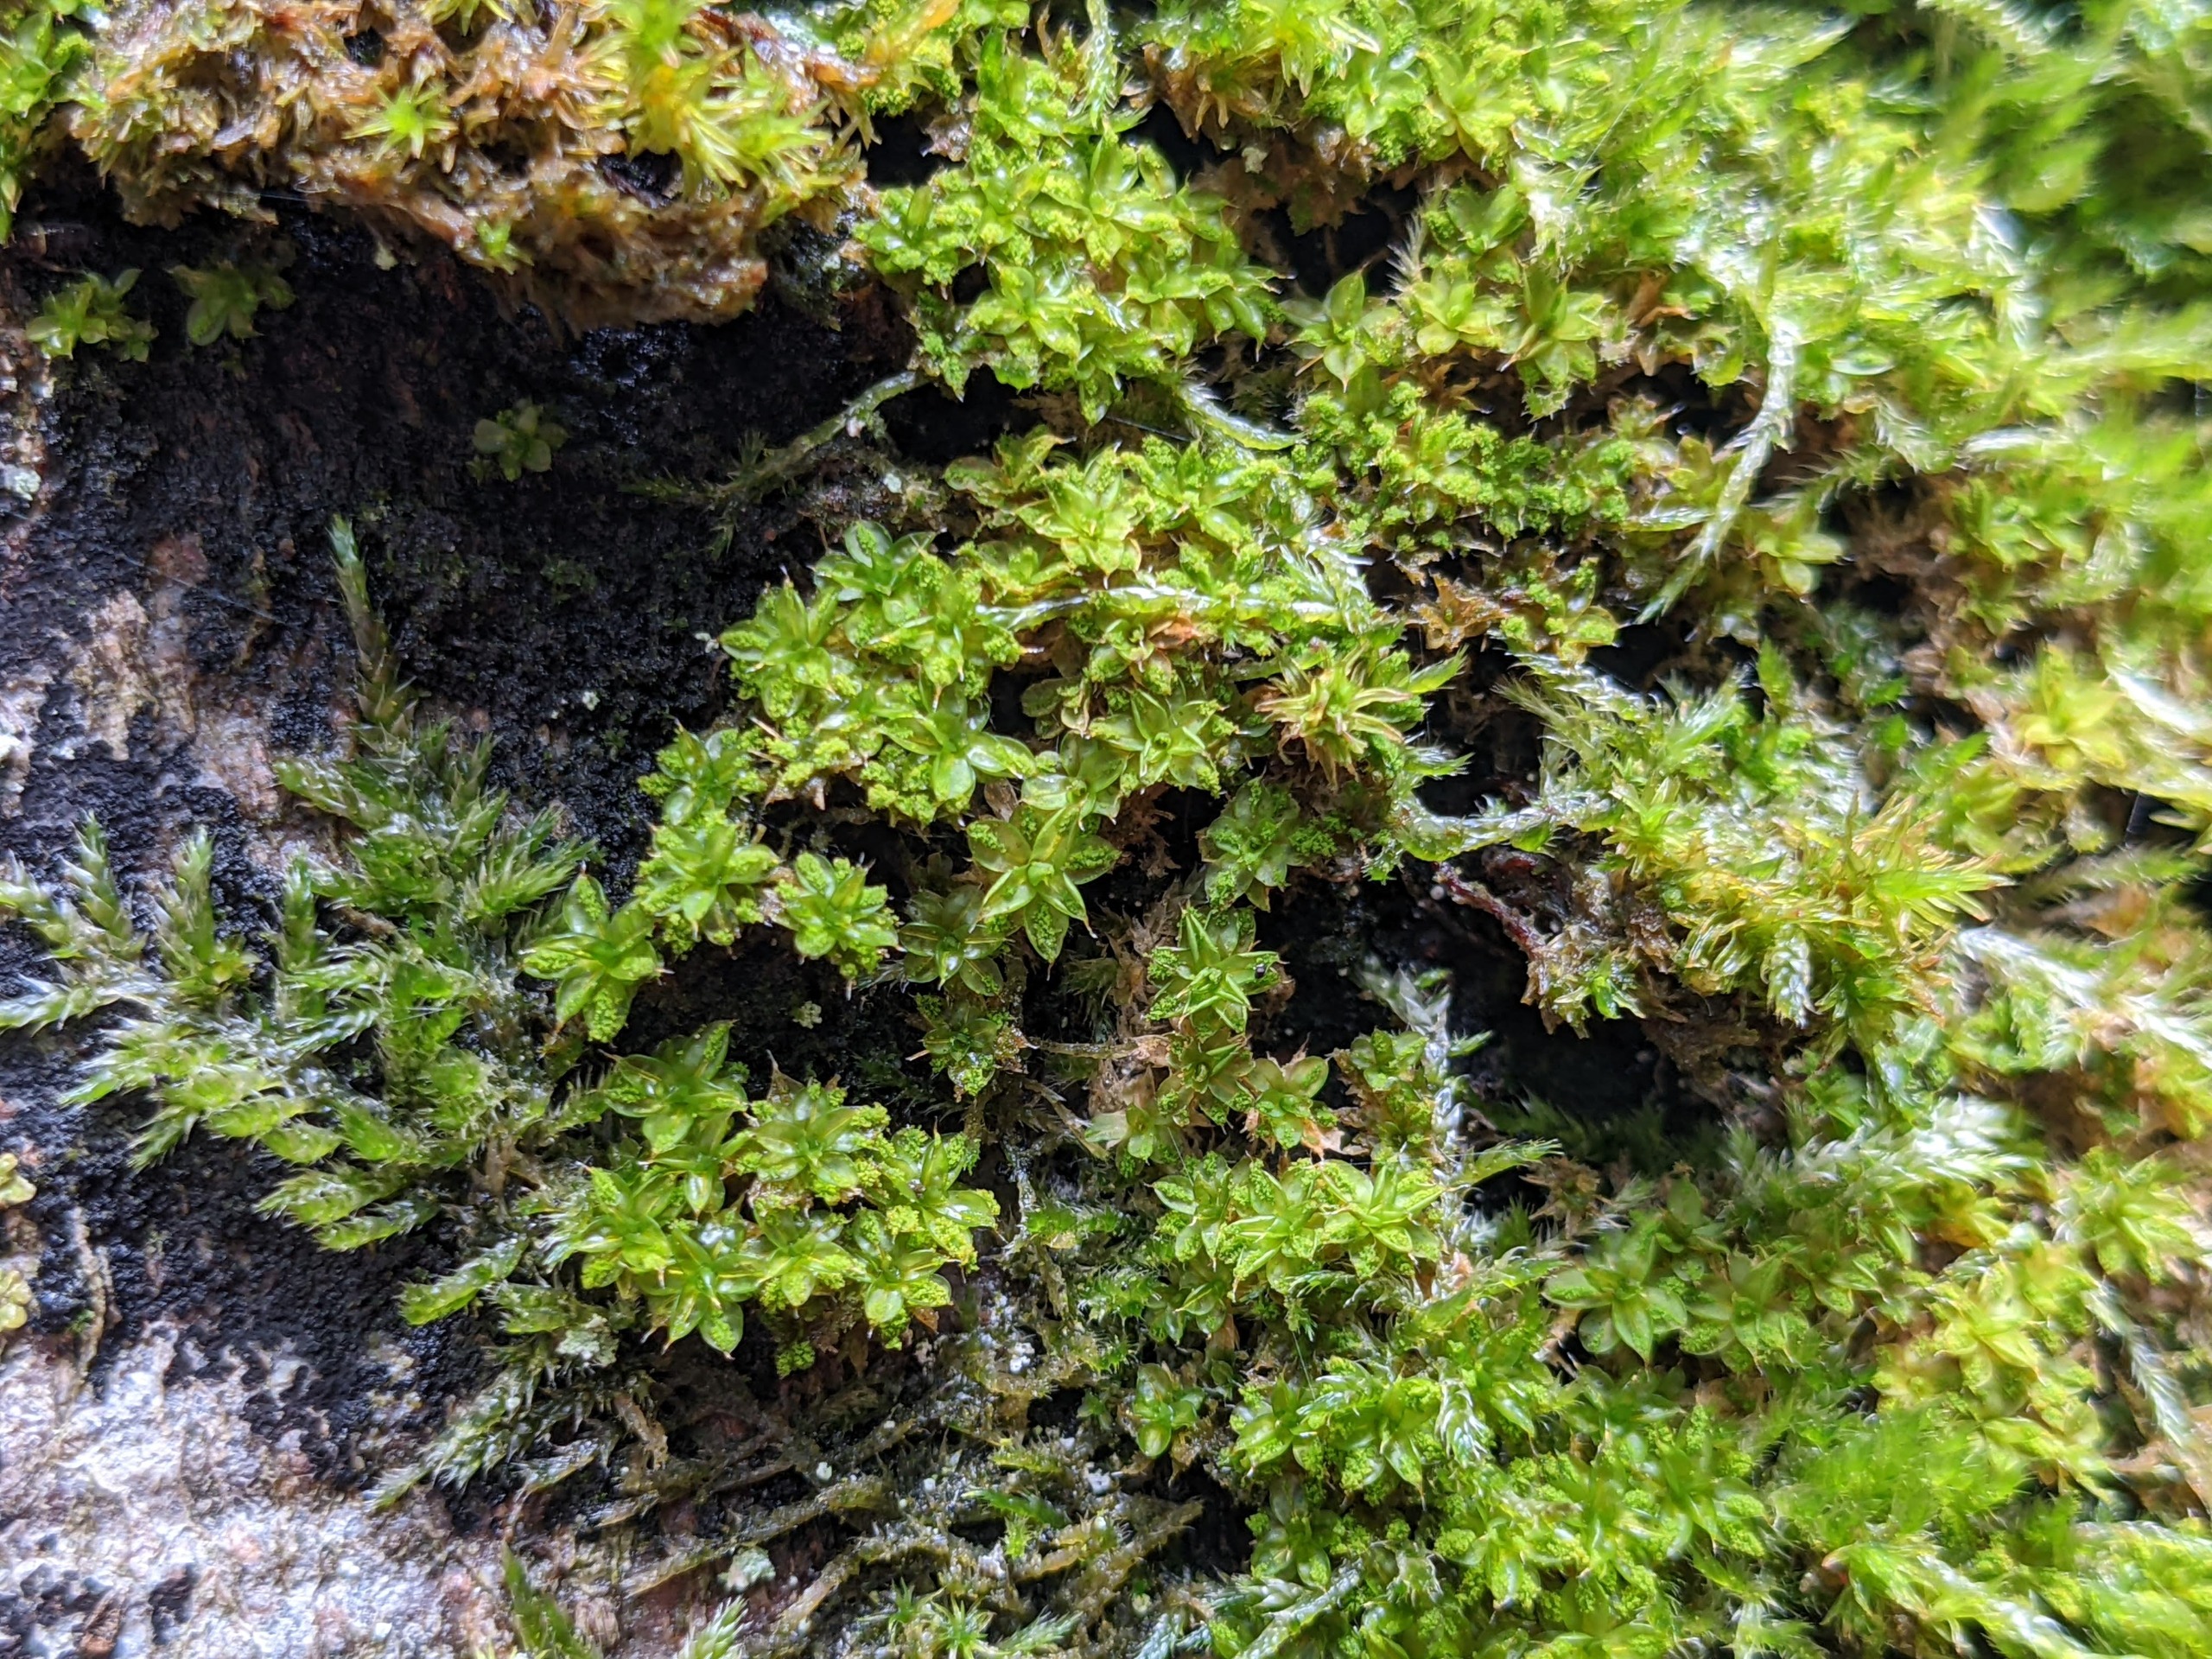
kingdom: Plantae
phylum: Bryophyta
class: Bryopsida
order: Pottiales
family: Pottiaceae
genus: Syntrichia
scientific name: Syntrichia papillosa
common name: Bark-hårstjerne
